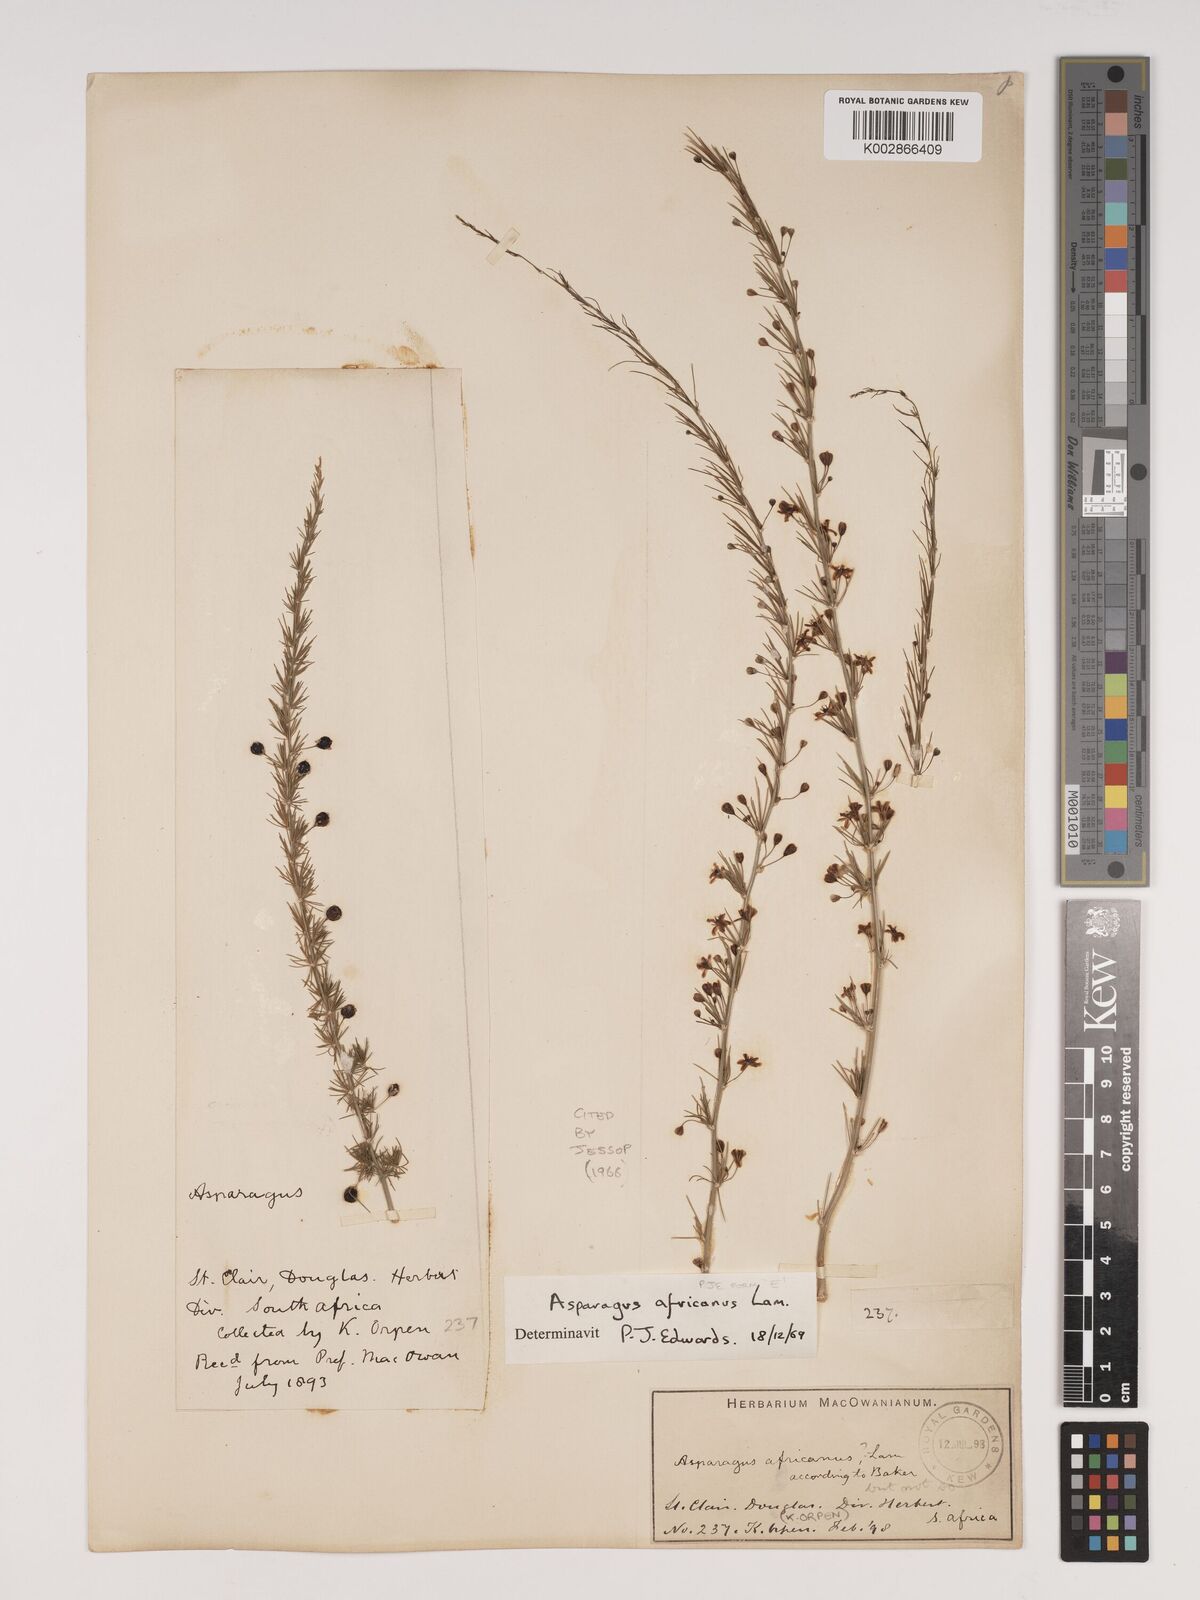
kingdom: Plantae
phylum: Tracheophyta
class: Liliopsida
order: Asparagales
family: Asparagaceae
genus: Asparagus
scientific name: Asparagus africanus
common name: Asparagus-fern
